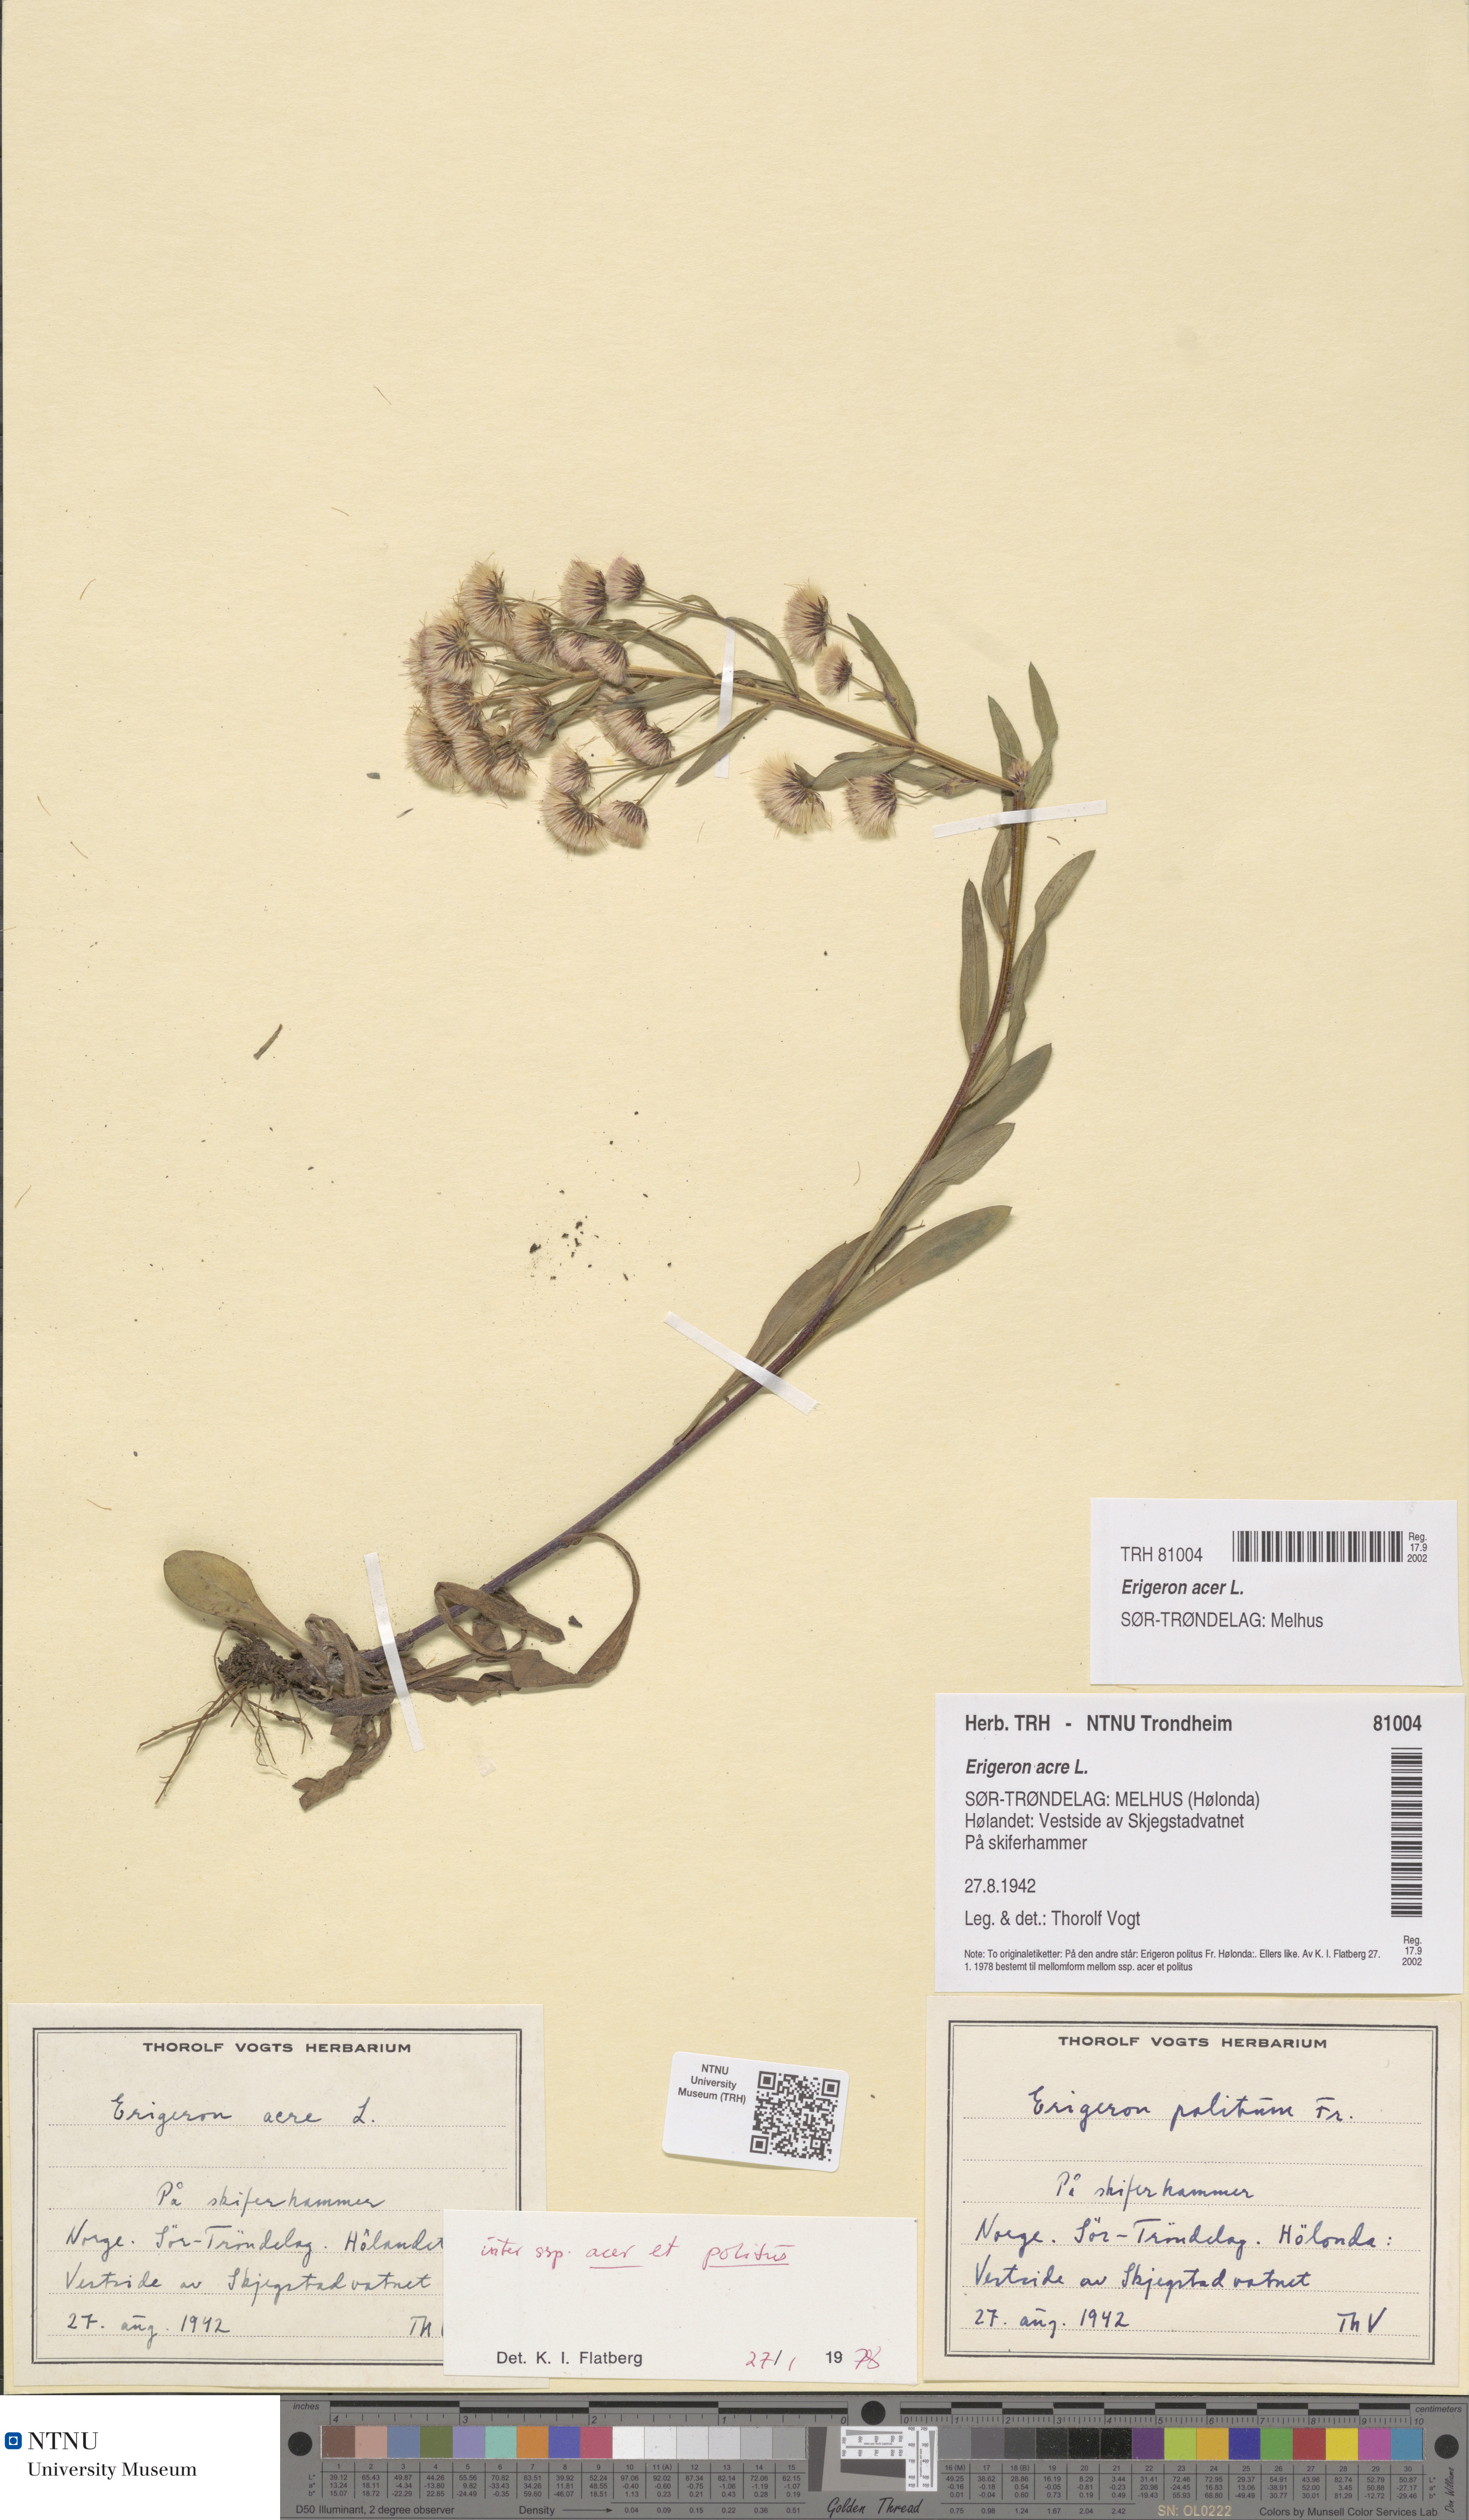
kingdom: Plantae
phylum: Tracheophyta
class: Magnoliopsida
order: Asterales
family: Asteraceae
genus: Erigeron
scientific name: Erigeron acris
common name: Blue fleabane
